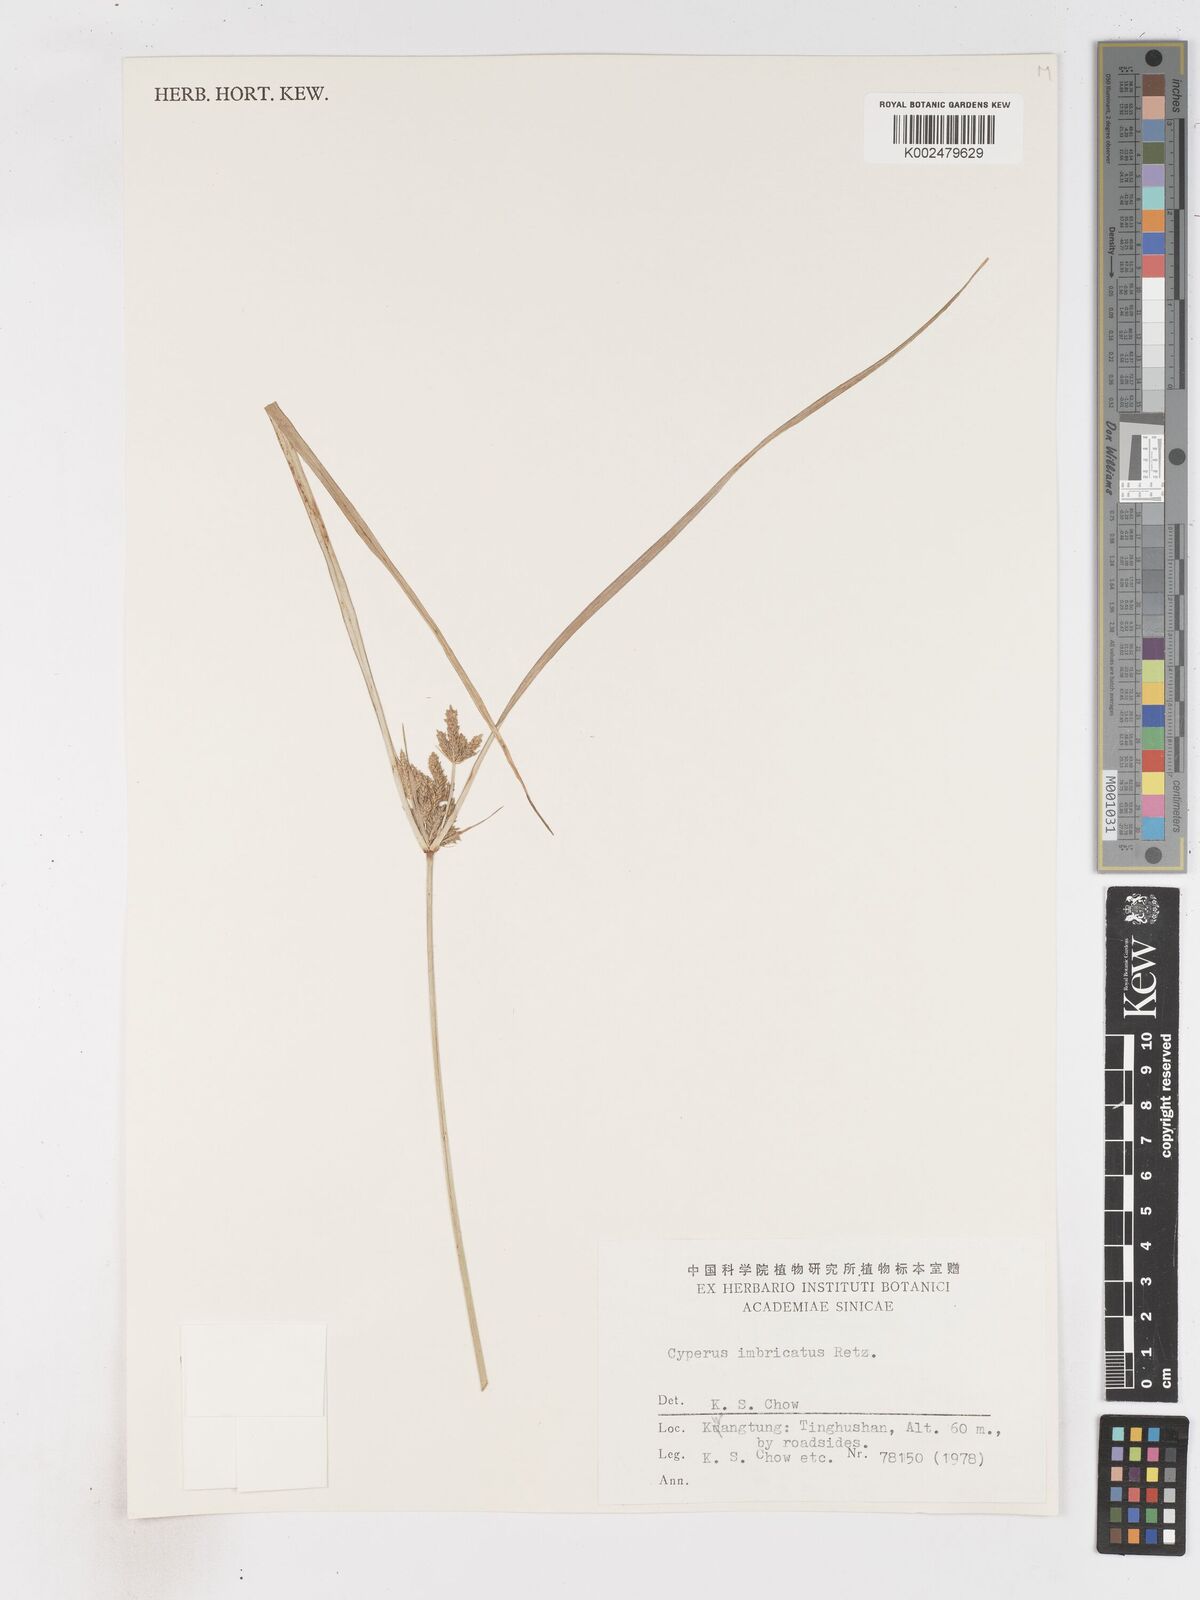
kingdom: Plantae
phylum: Tracheophyta
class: Liliopsida
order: Poales
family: Cyperaceae
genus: Cyperus
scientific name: Cyperus imbricatus
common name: Shingle flatsedge
